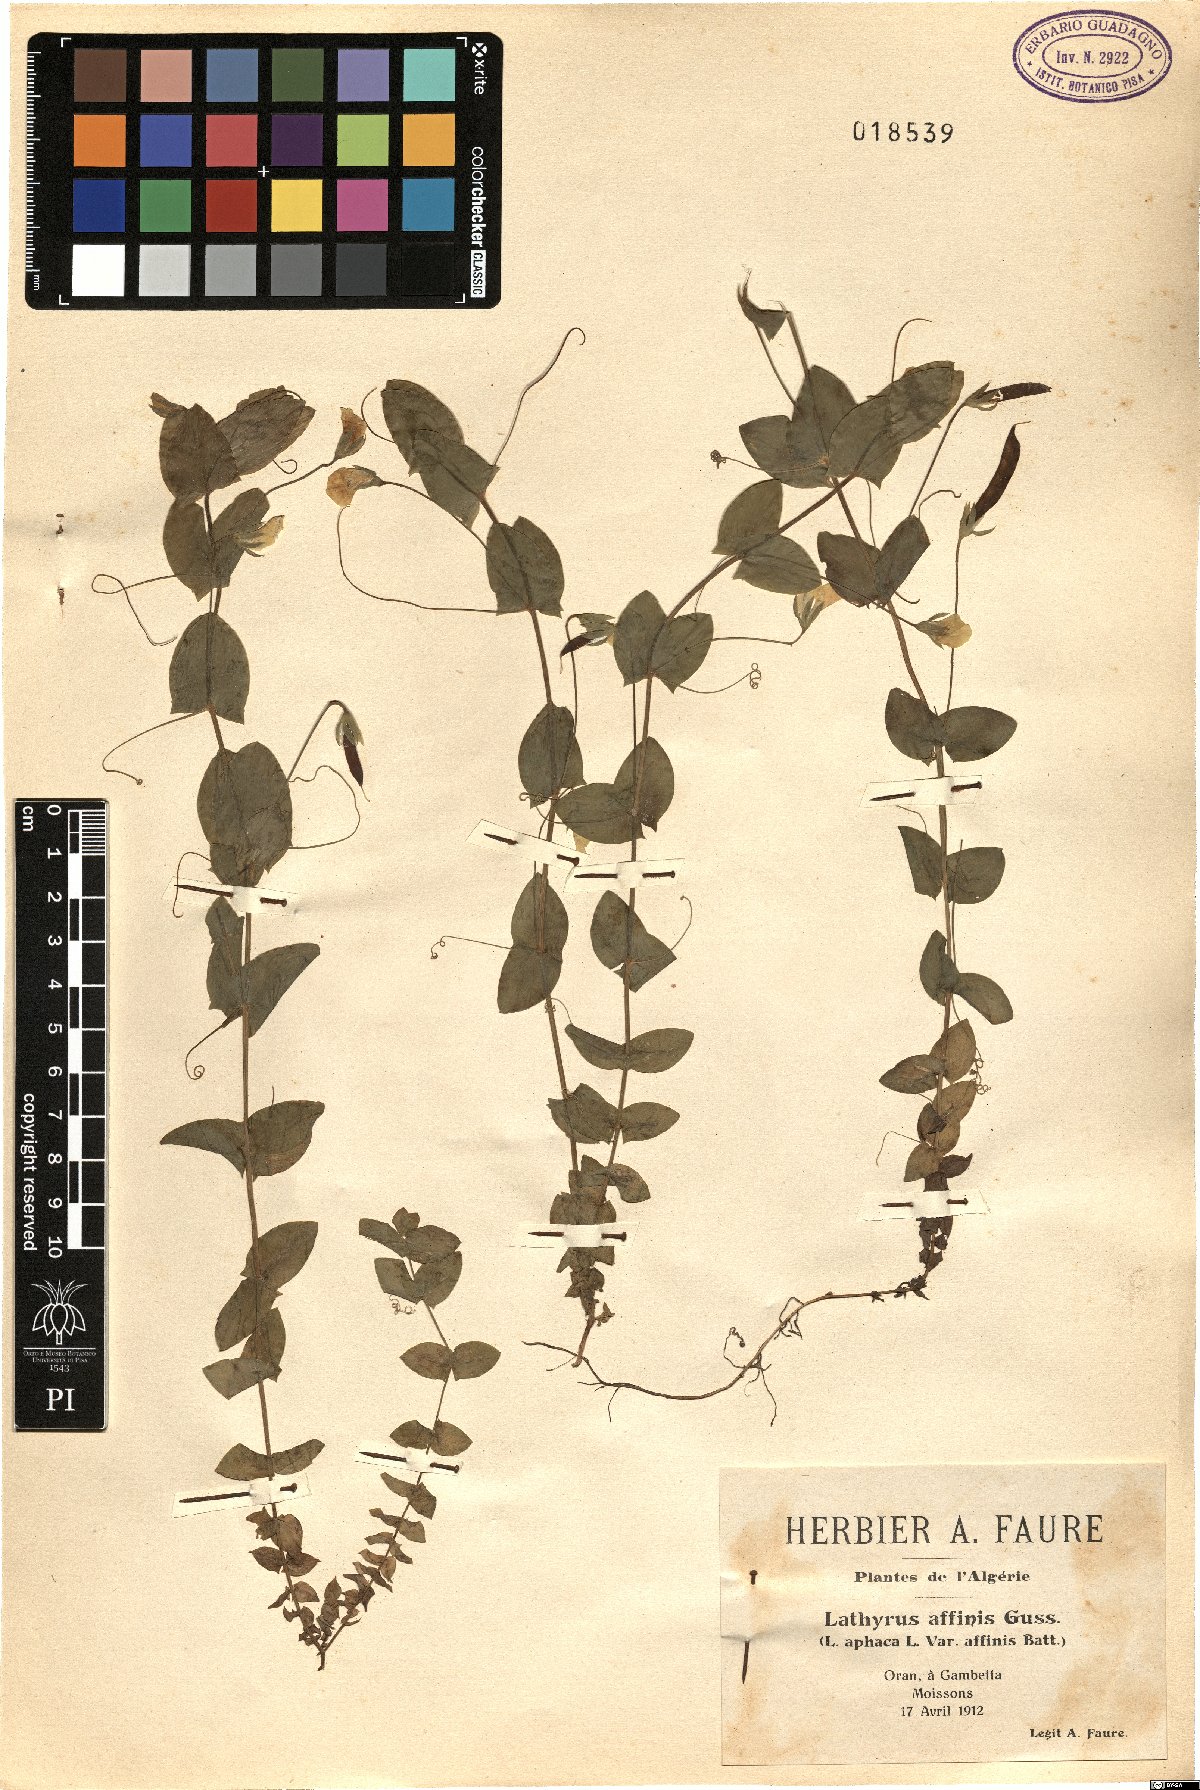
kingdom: Plantae
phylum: Tracheophyta
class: Magnoliopsida
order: Fabales
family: Fabaceae
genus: Lathyrus
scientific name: Lathyrus aphaca
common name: Yellow vetchling
